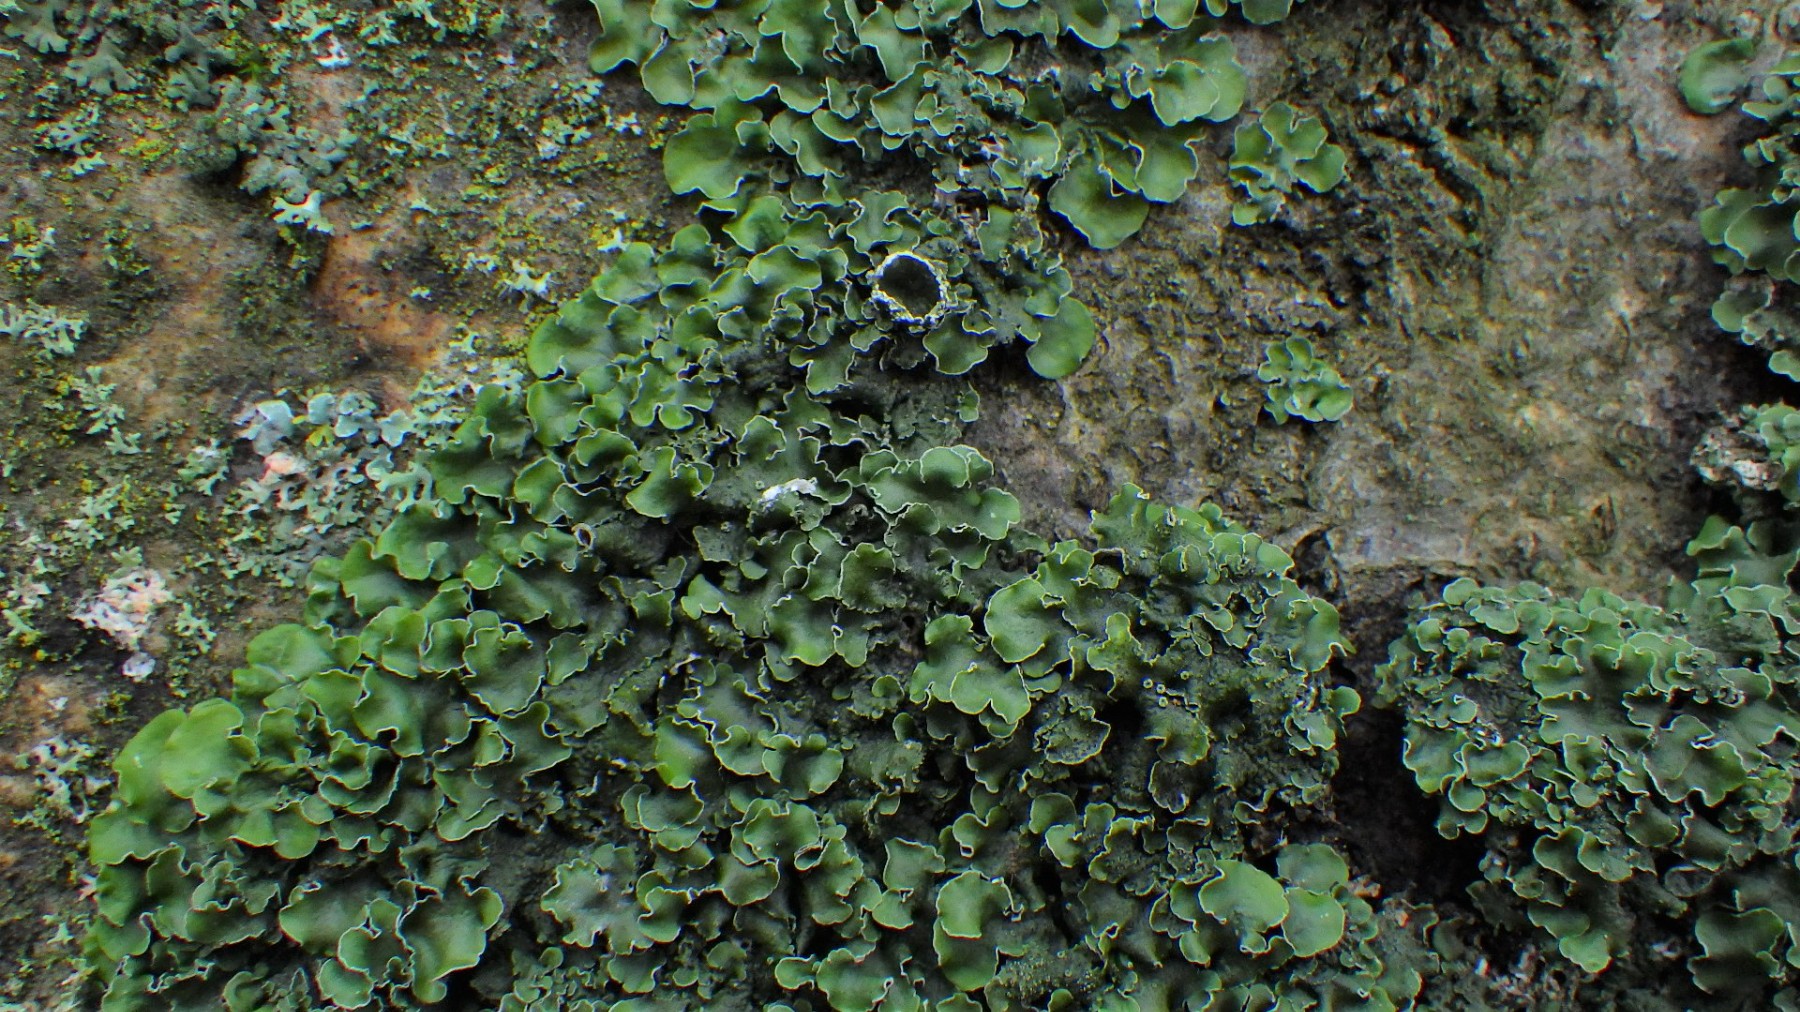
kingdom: Fungi
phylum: Ascomycota
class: Lecanoromycetes
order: Lecanorales
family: Parmeliaceae
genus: Pleurosticta
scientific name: Pleurosticta acetabulum
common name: stor skållav
